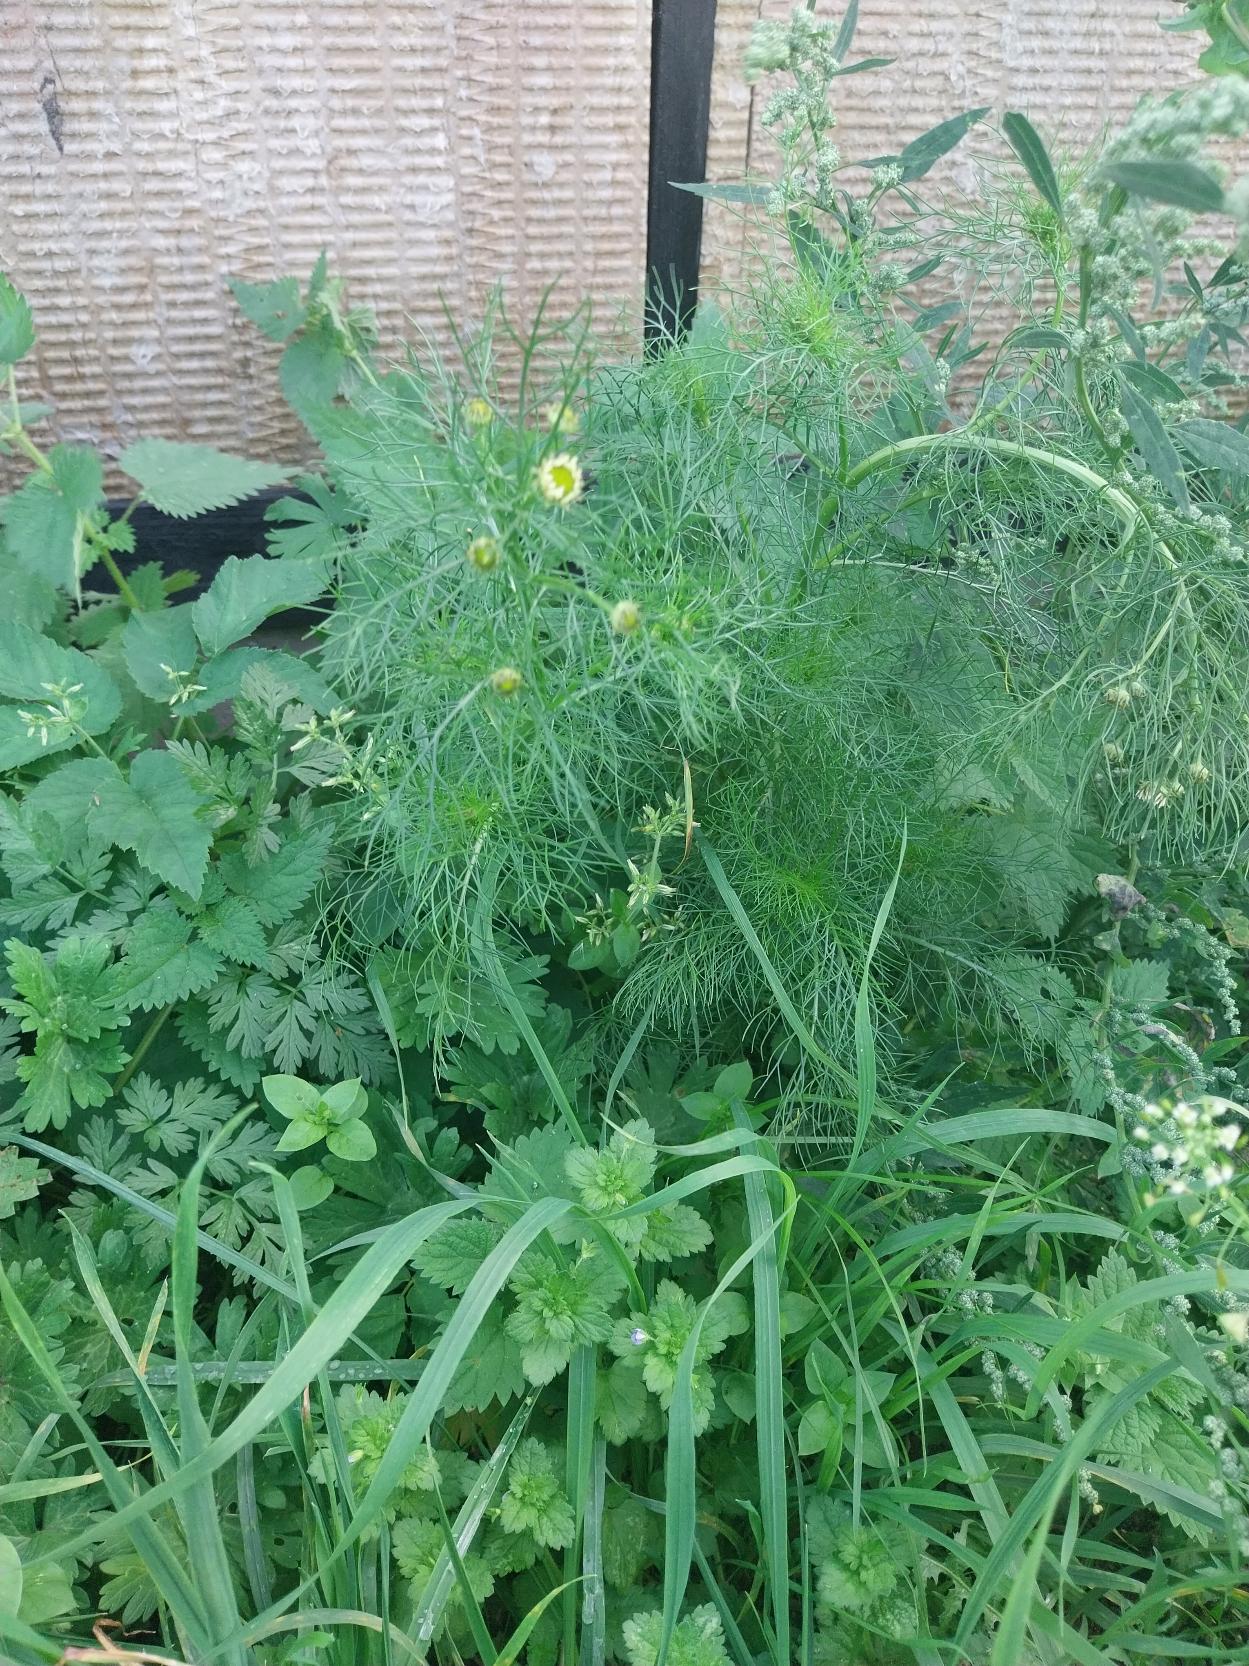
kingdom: Plantae
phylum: Tracheophyta
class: Magnoliopsida
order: Asterales
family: Asteraceae
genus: Tripleurospermum
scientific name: Tripleurospermum inodorum
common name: Lugtløs kamille
